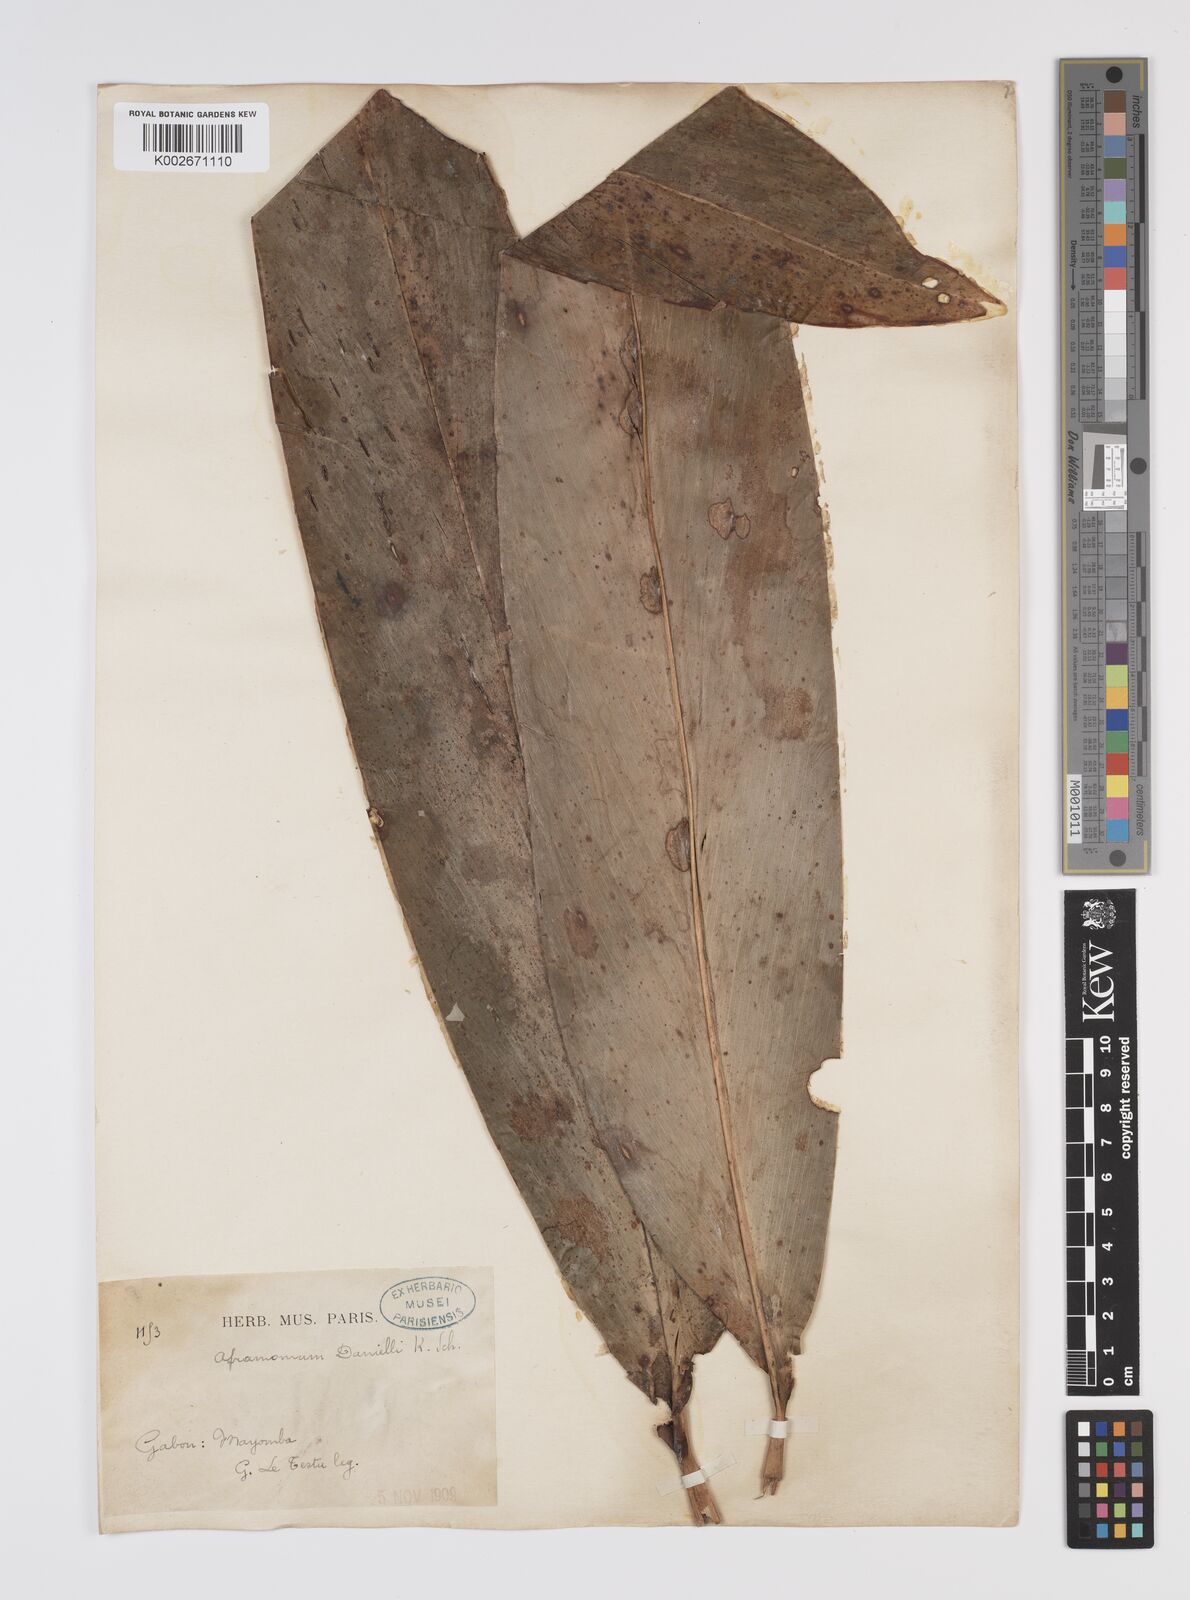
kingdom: Plantae
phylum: Tracheophyta
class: Liliopsida
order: Zingiberales
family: Zingiberaceae
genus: Aframomum
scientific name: Aframomum daniellii
